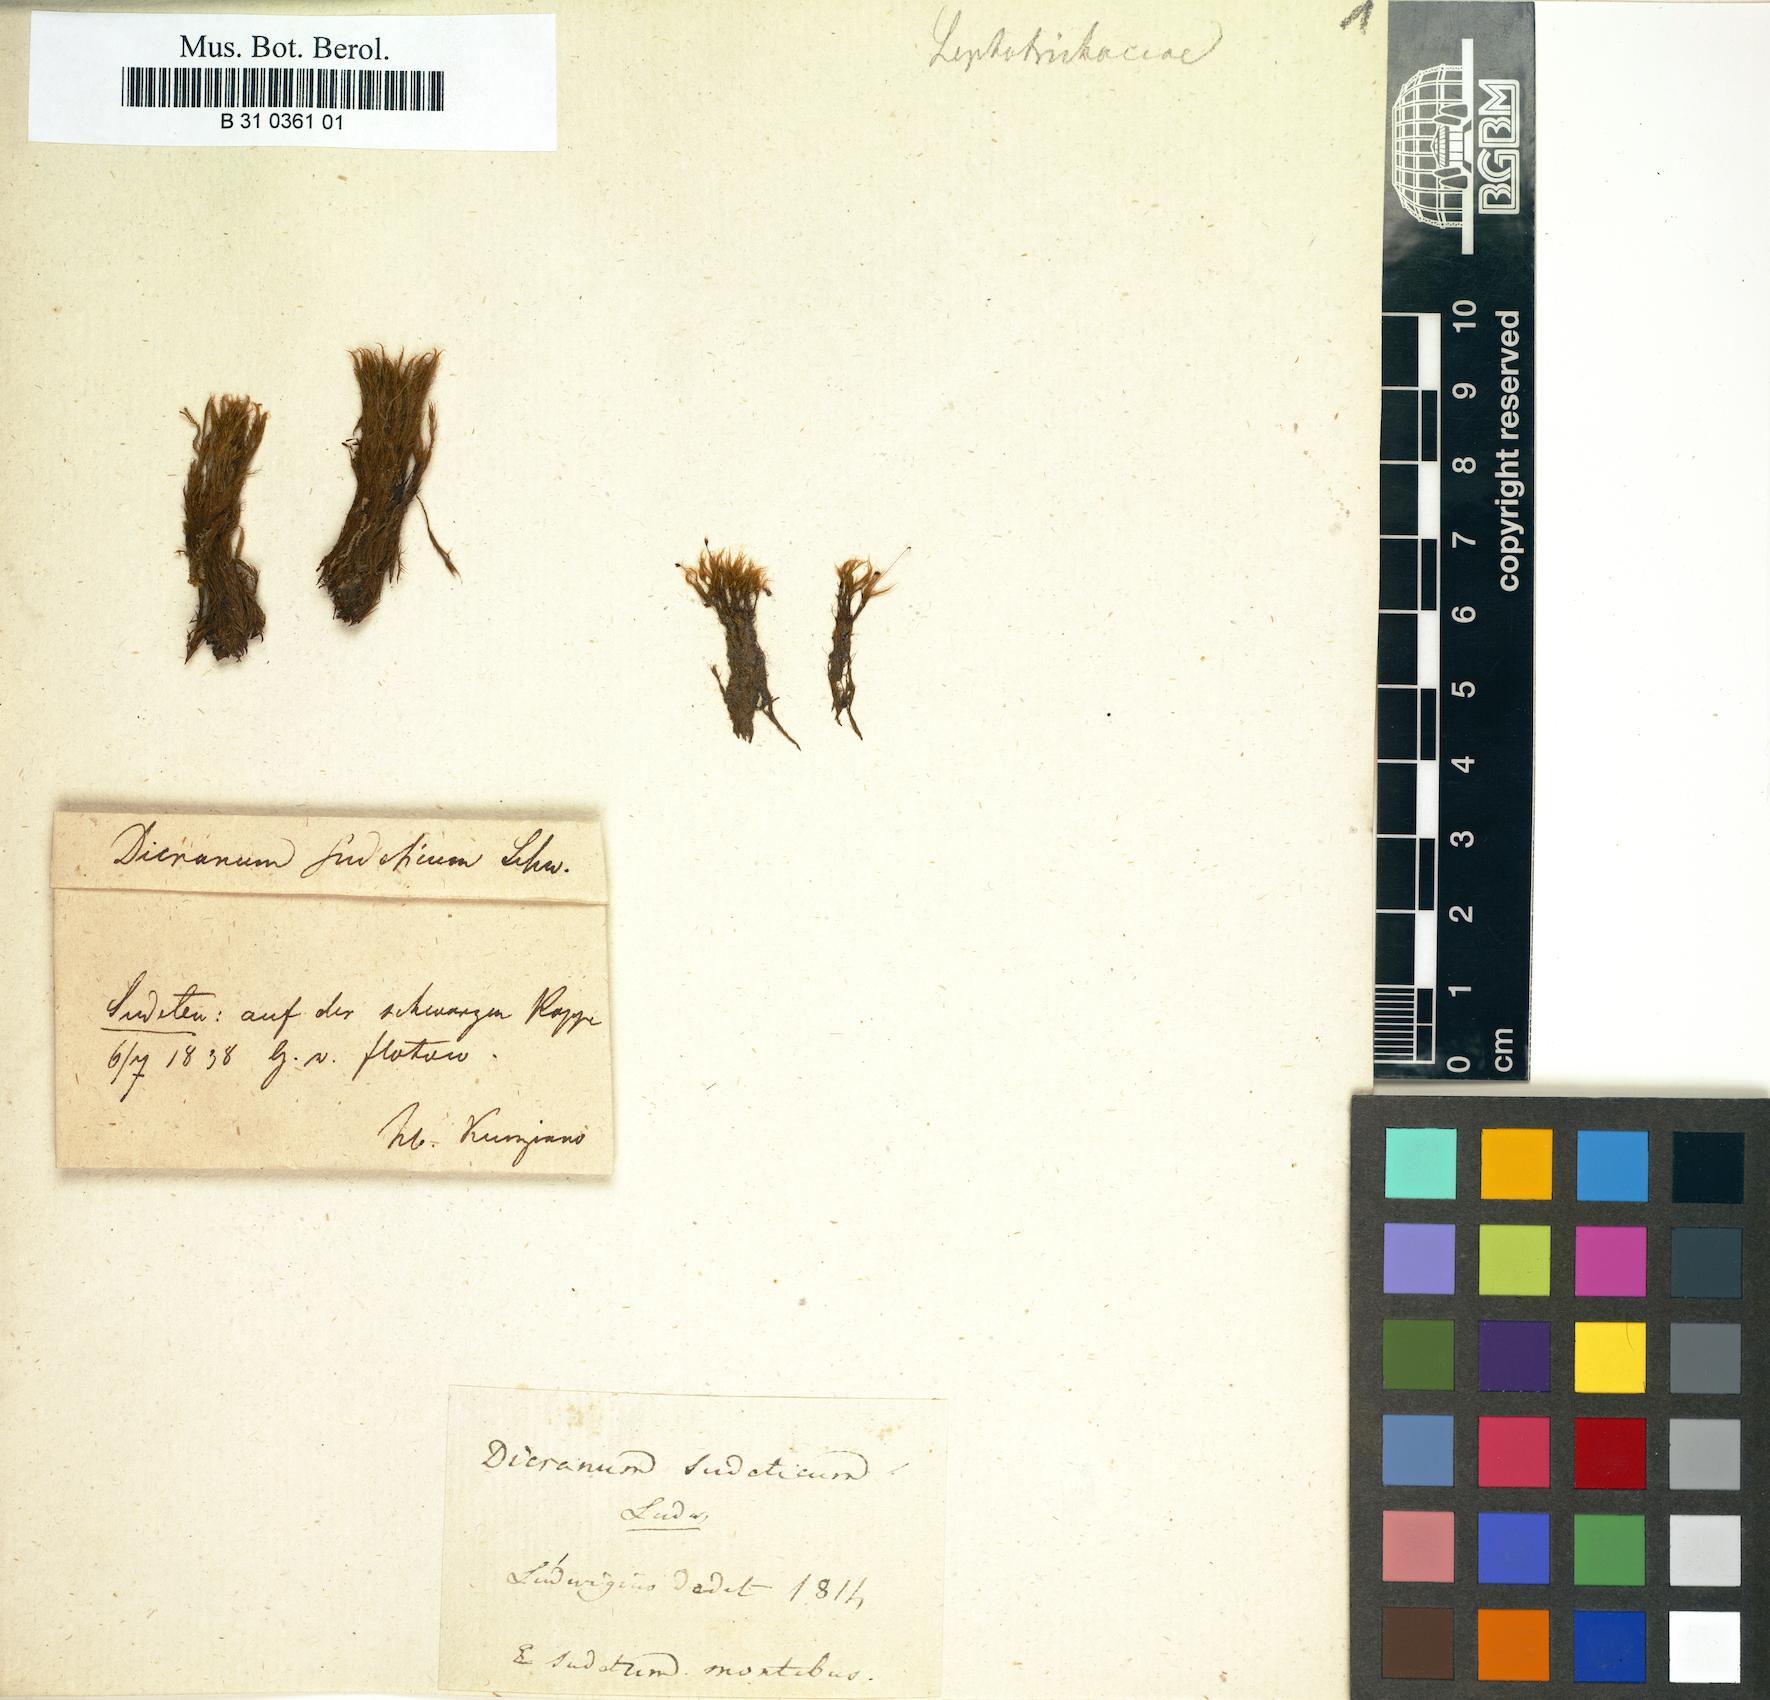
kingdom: Plantae
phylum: Bryophyta
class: Bryopsida
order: Dicranales
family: Dicranellaceae
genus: Dicranella
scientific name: Dicranella subulata
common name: Awl-leaved forklet moss
